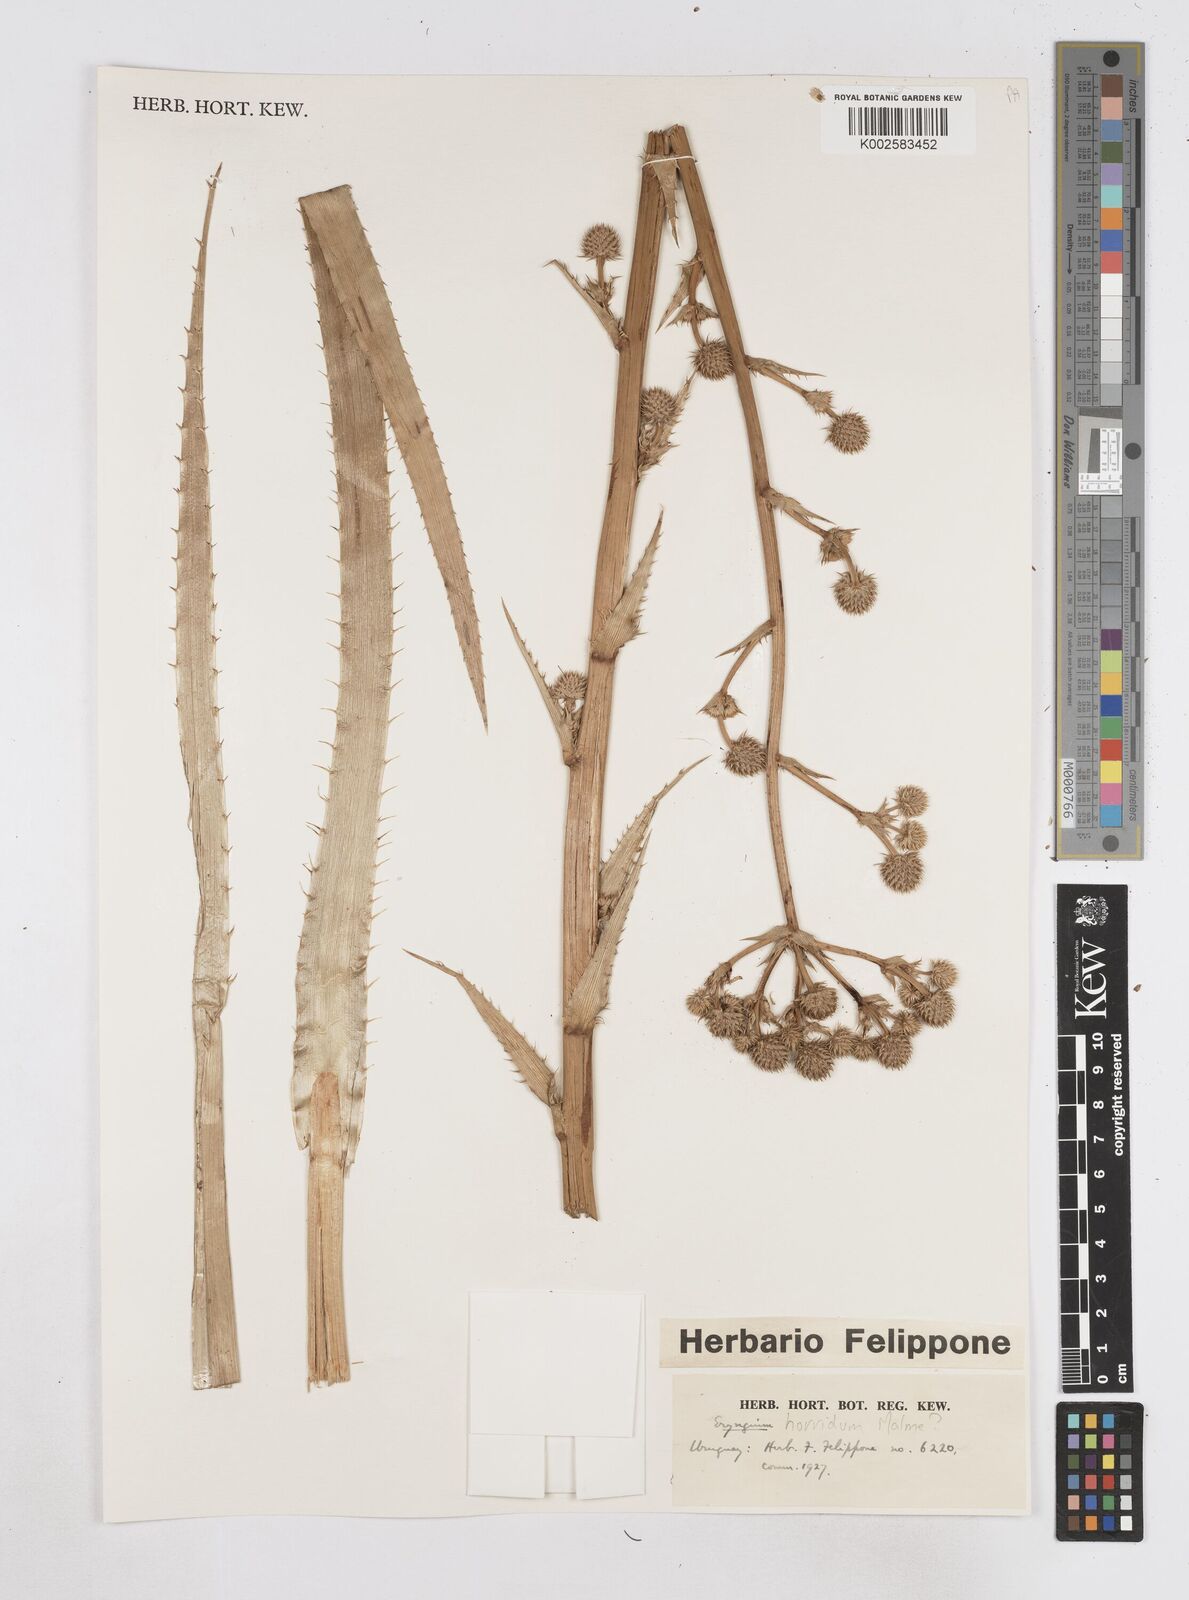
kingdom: Plantae
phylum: Tracheophyta
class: Magnoliopsida
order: Apiales
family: Apiaceae
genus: Eryngium
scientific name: Eryngium horridum
